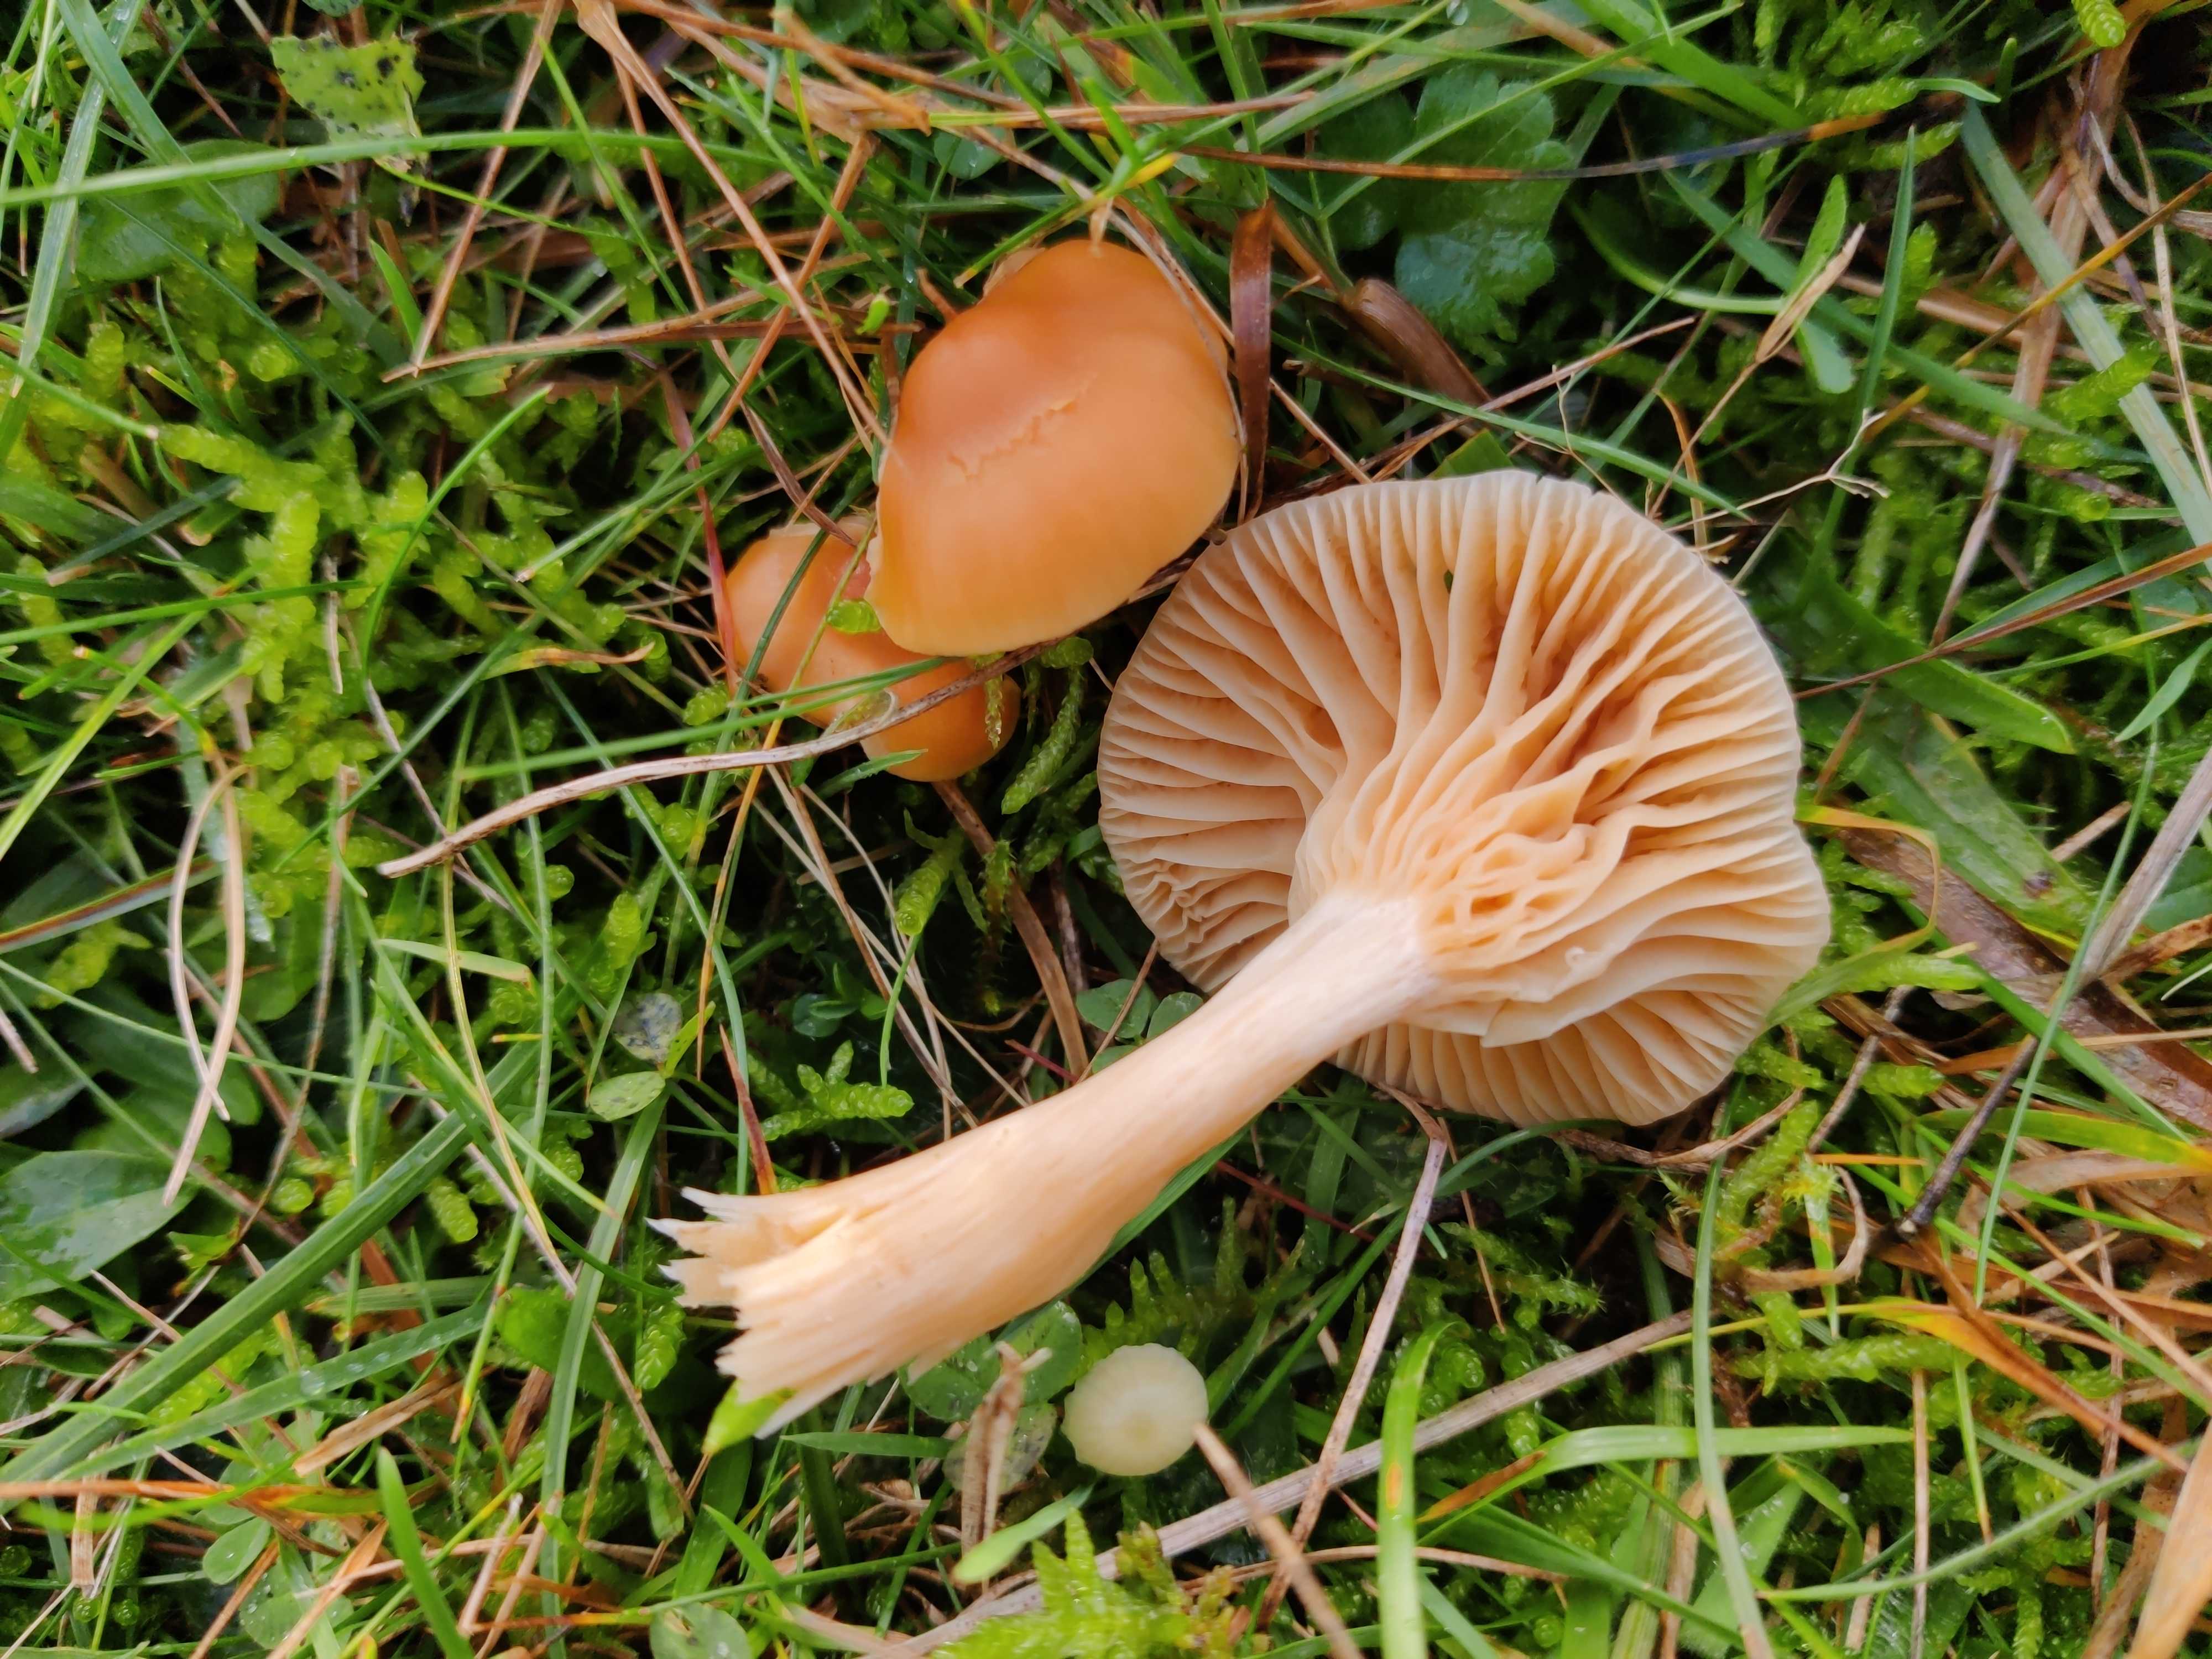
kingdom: Fungi
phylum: Basidiomycota
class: Agaricomycetes
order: Agaricales
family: Hygrophoraceae
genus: Cuphophyllus
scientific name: Cuphophyllus pratensis
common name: eng-vokshat
